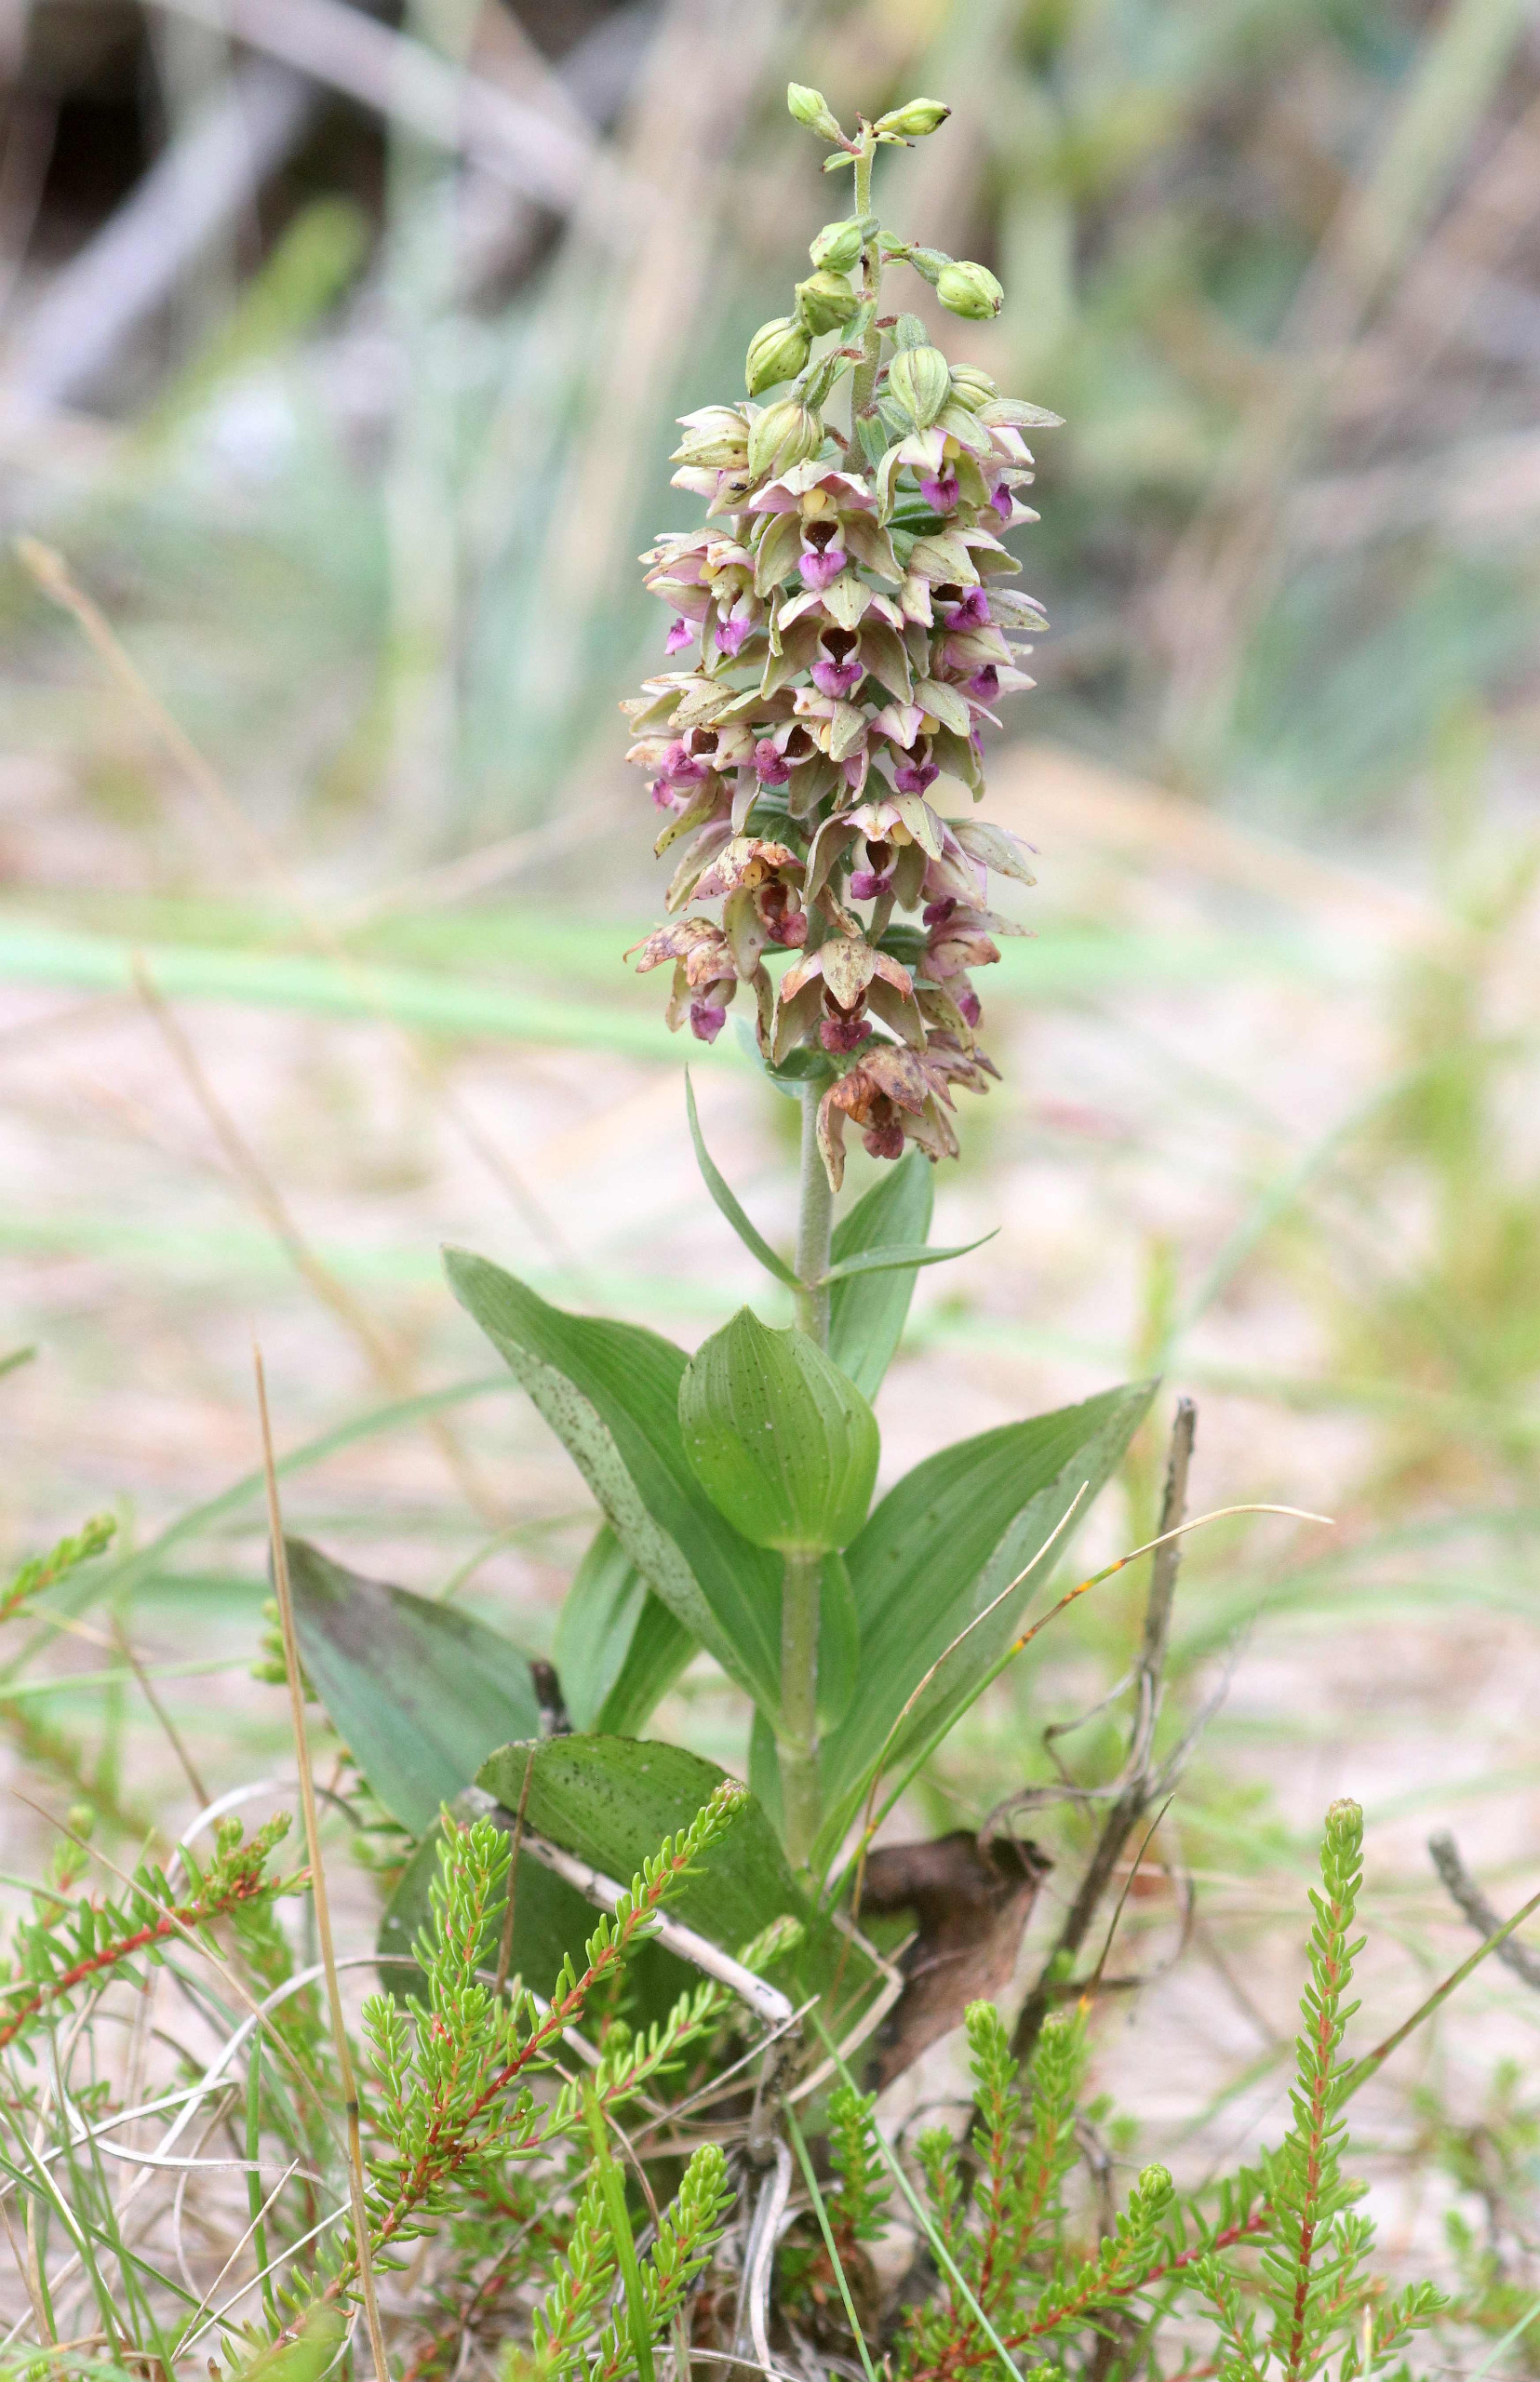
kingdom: Plantae
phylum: Tracheophyta
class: Liliopsida
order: Asparagales
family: Orchidaceae
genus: Epipactis
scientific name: Epipactis helleborine
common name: Hollandsk hullæbe
